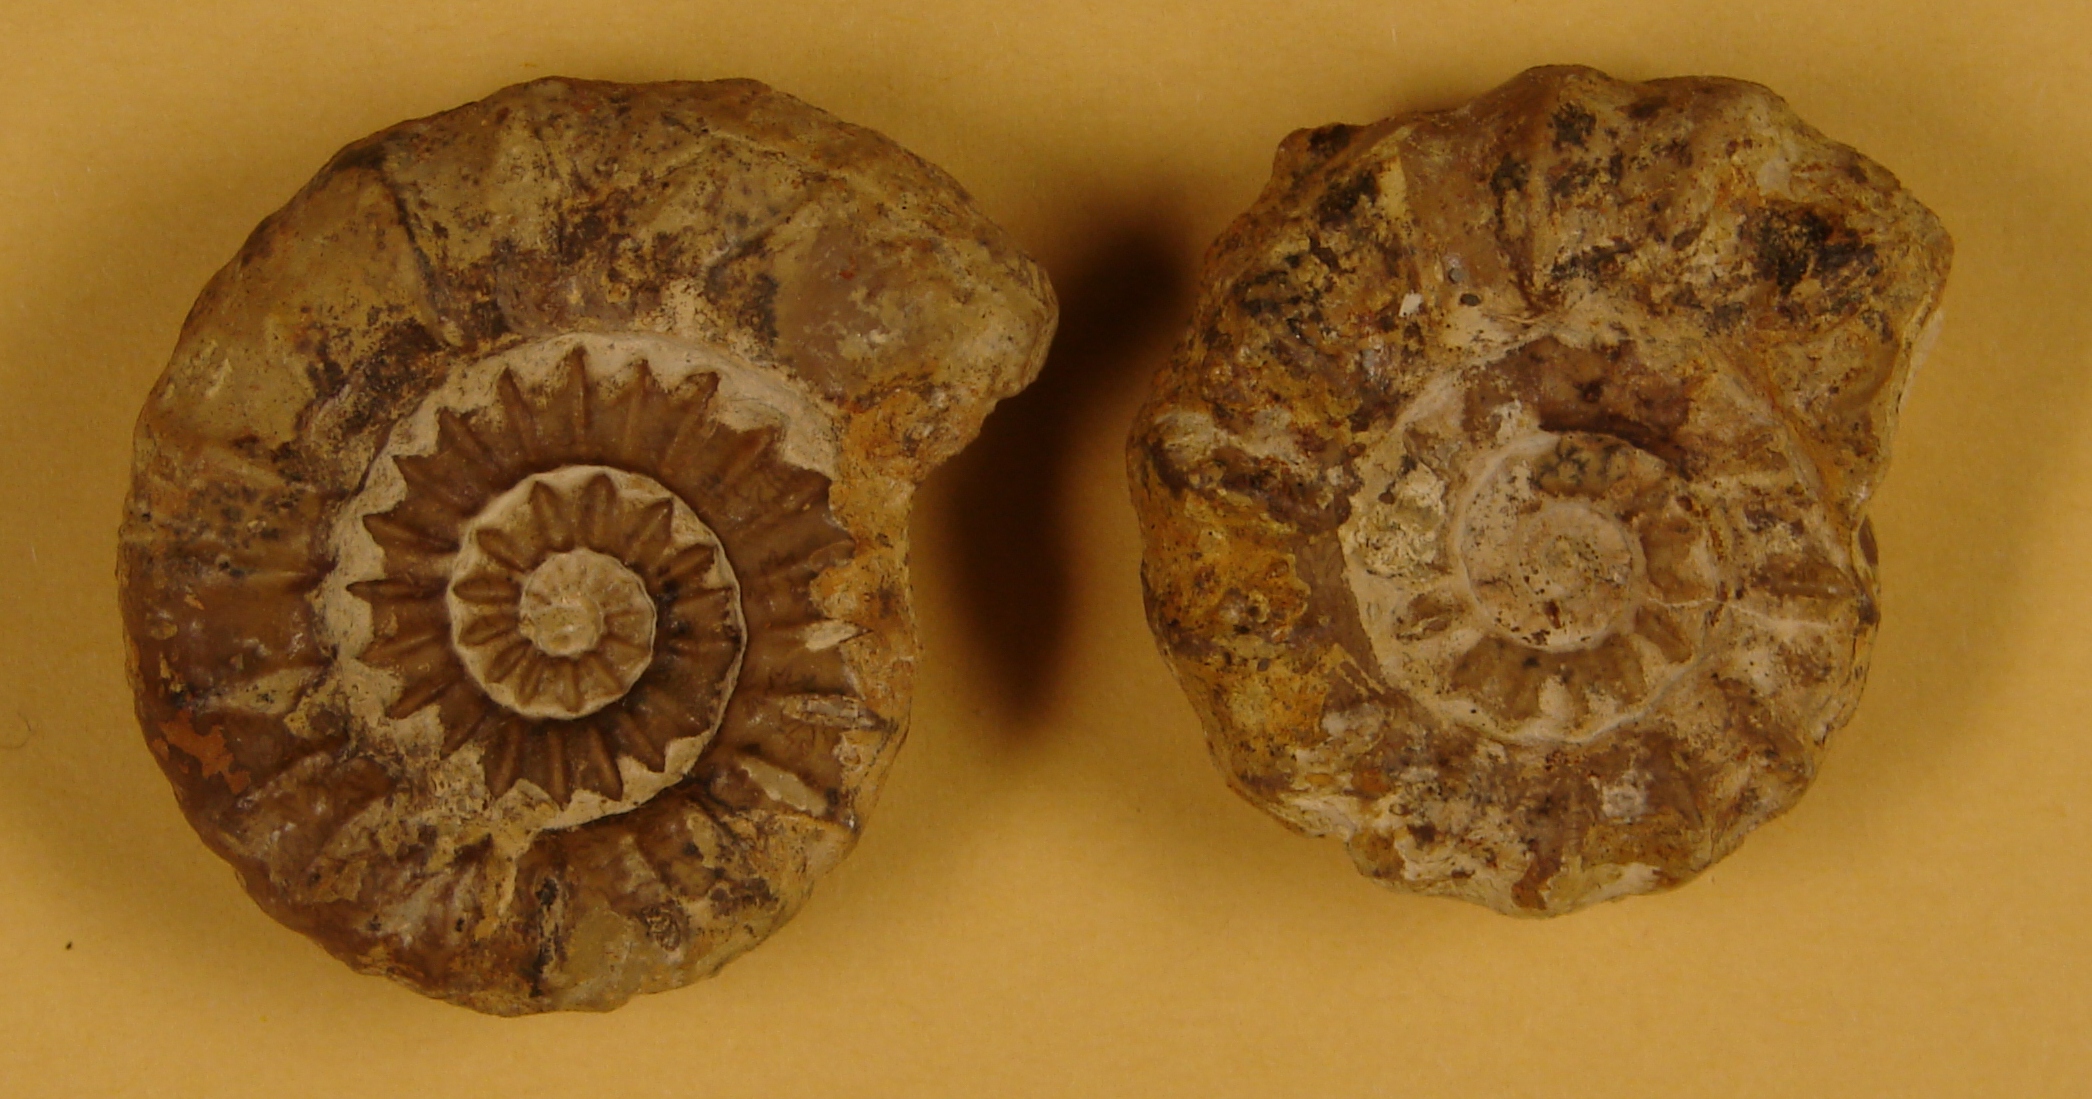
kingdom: Animalia
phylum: Mollusca
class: Cephalopoda
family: Liparoceratidae
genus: Aegoceras
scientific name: Aegoceras lataecosta
